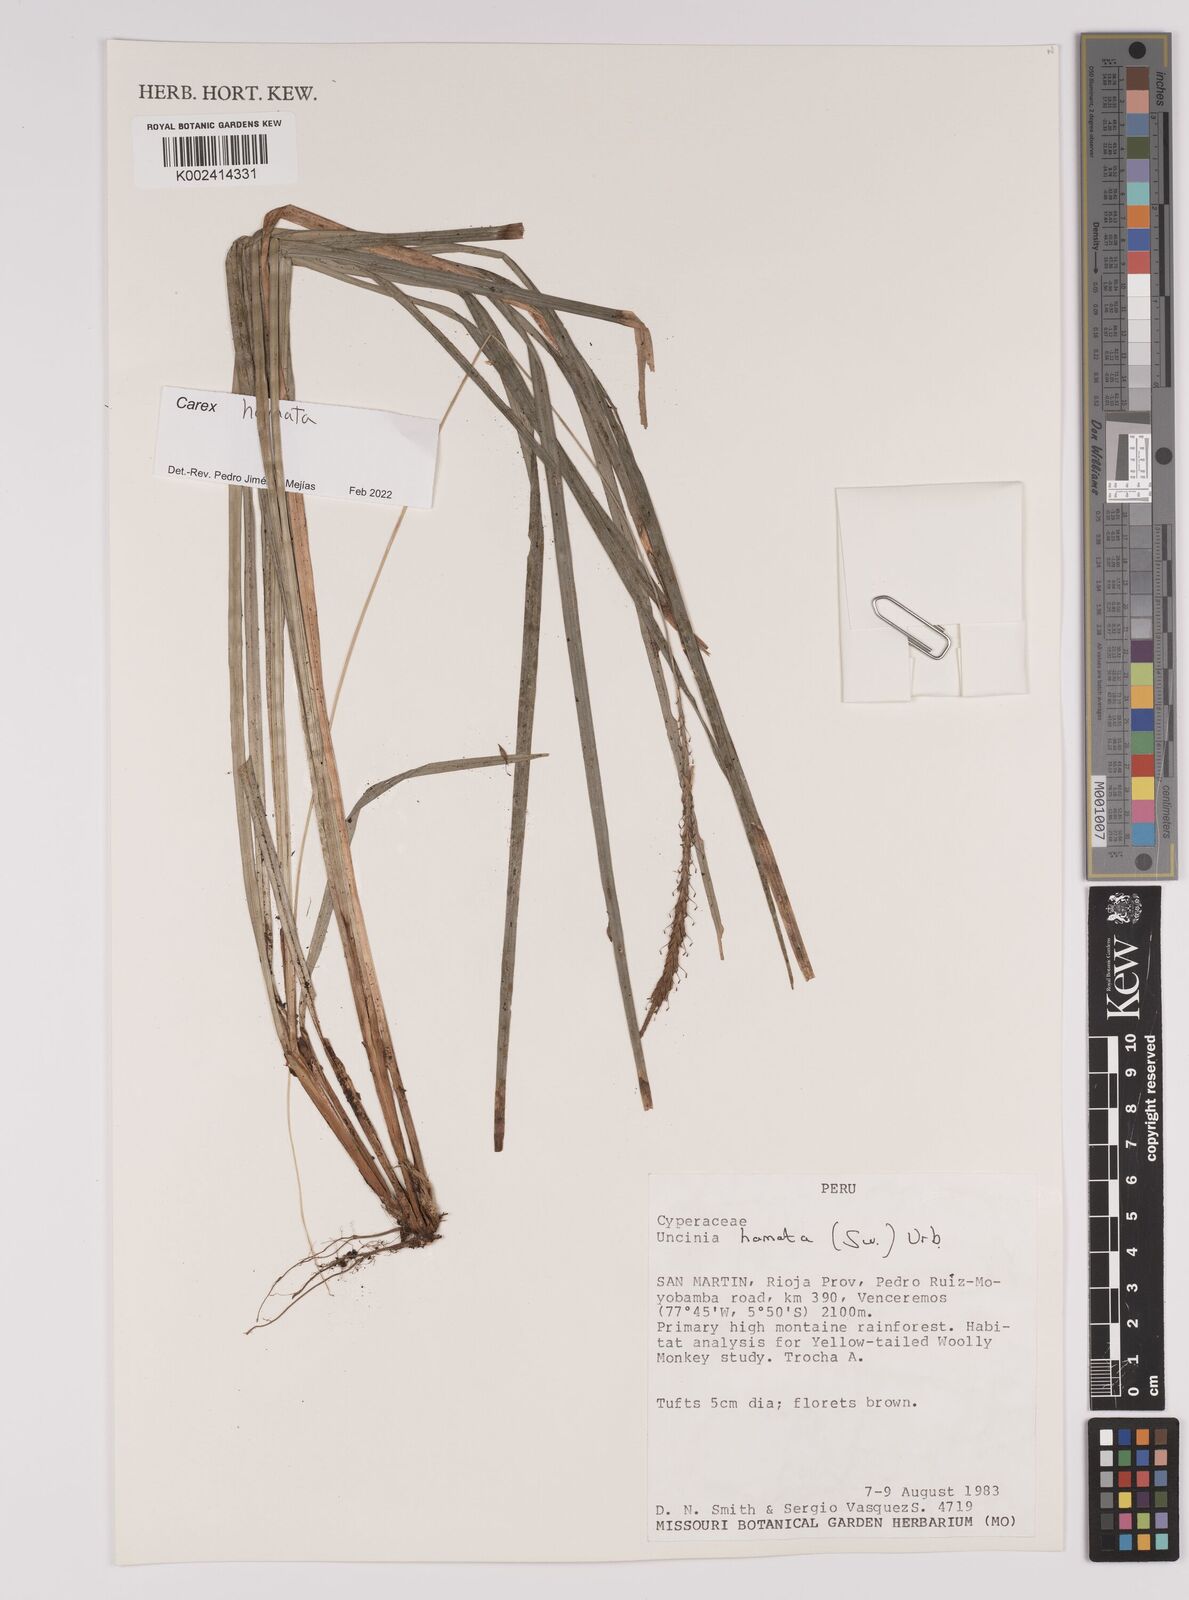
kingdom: Plantae
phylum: Tracheophyta
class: Liliopsida
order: Poales
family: Cyperaceae
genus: Carex
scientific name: Carex hamata
